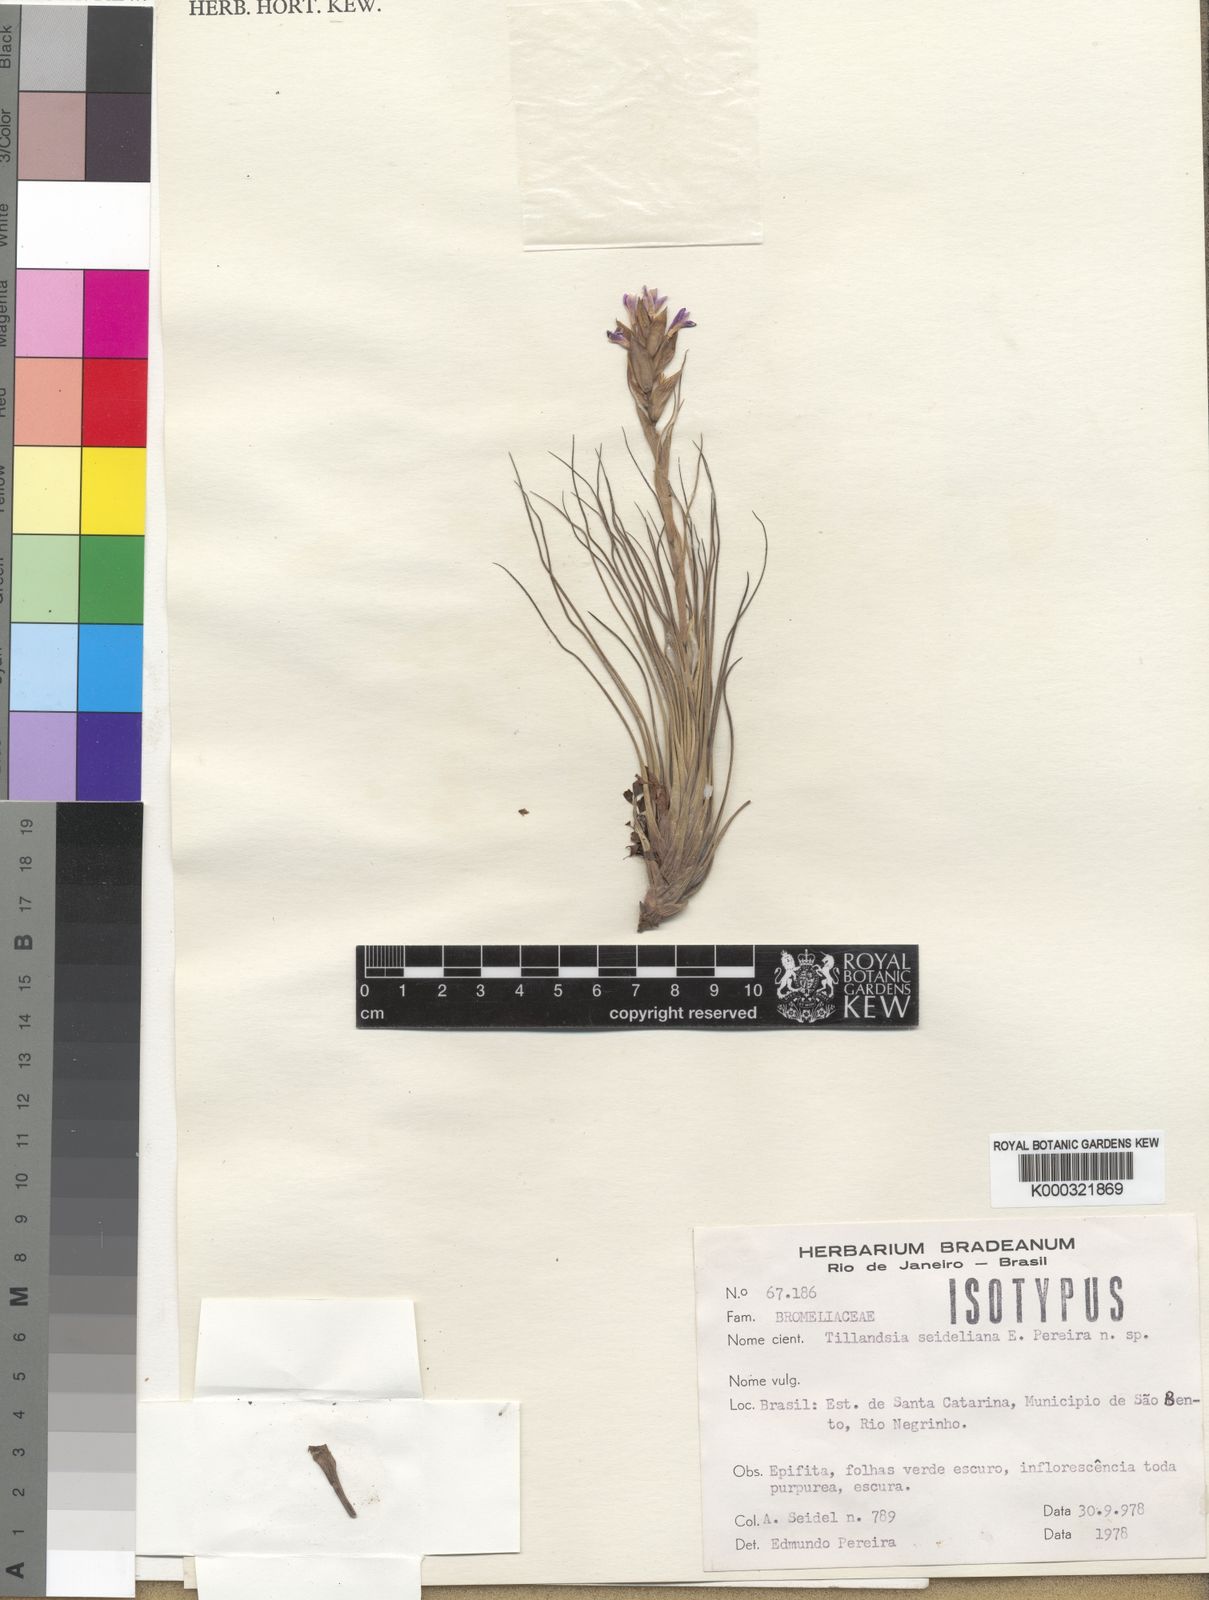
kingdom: Plantae
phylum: Tracheophyta
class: Liliopsida
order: Poales
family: Bromeliaceae
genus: Tillandsia
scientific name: Tillandsia seideliana
